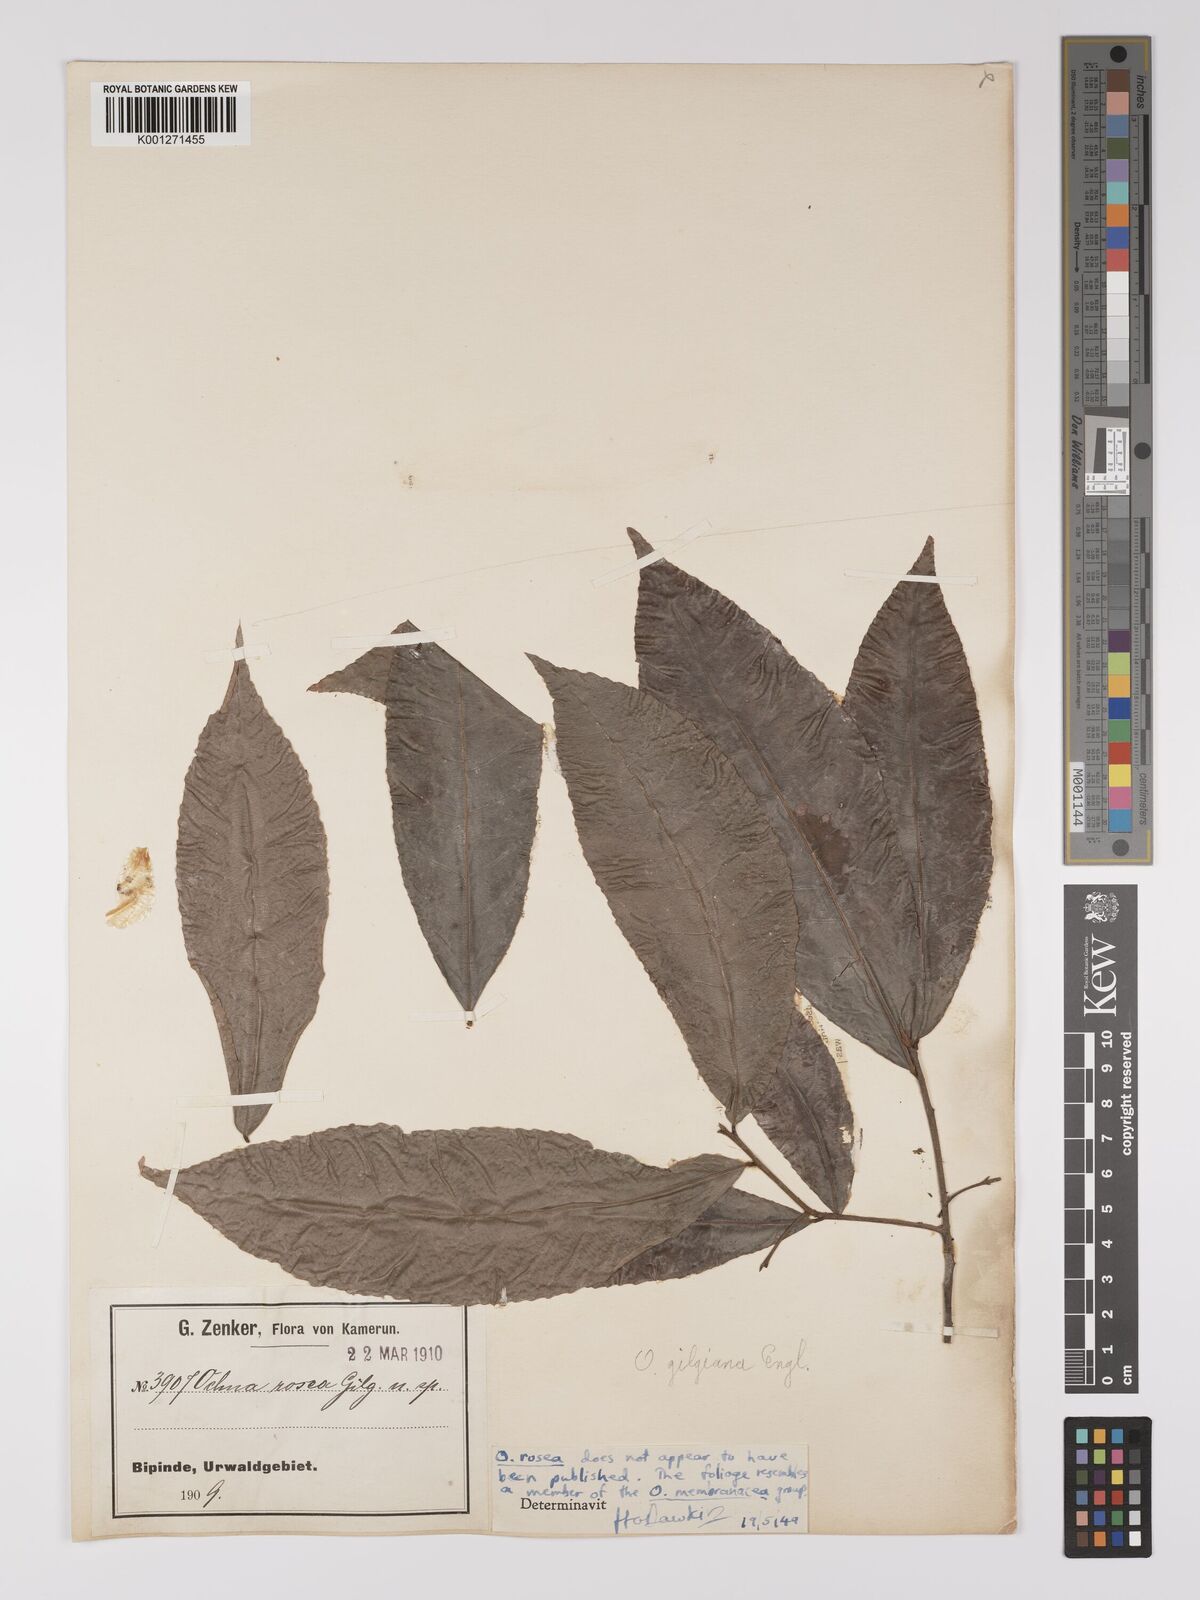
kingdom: Plantae
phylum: Tracheophyta
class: Magnoliopsida
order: Malpighiales
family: Ochnaceae
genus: Ochna
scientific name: Ochna membranacea
